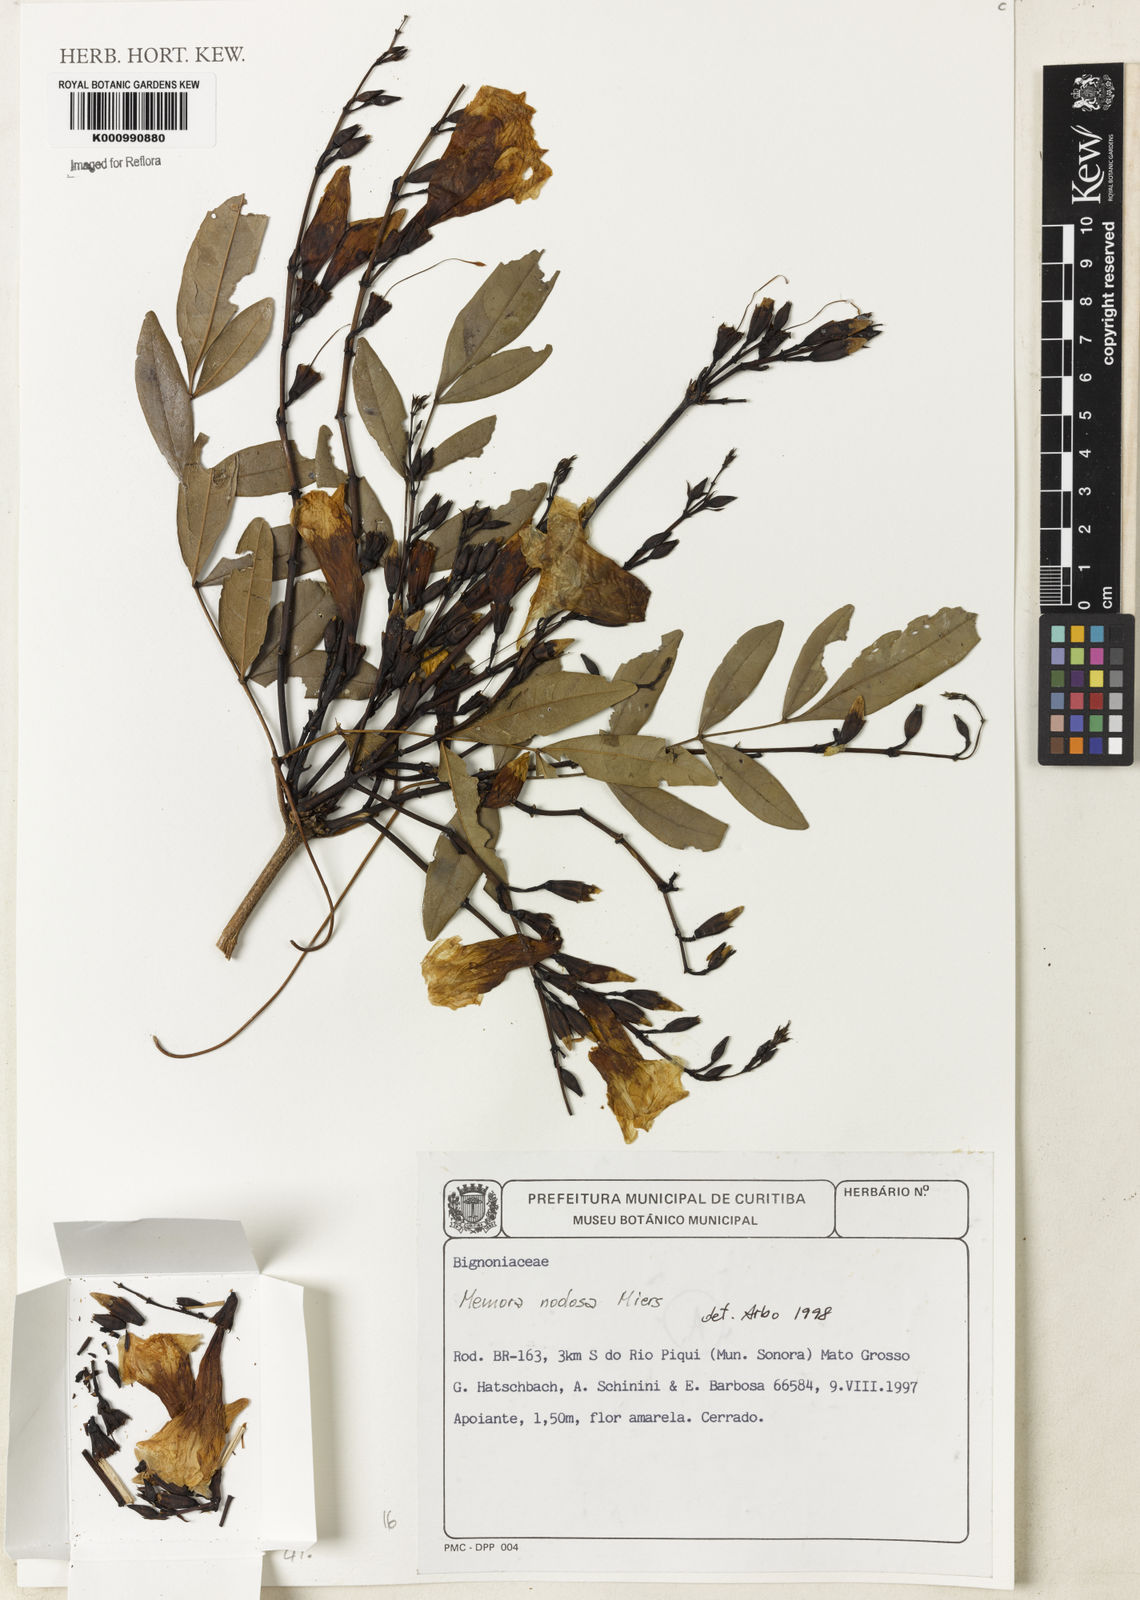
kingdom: Plantae
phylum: Tracheophyta
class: Magnoliopsida
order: Lamiales
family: Bignoniaceae
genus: Adenocalymma
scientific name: Adenocalymma nodosum
